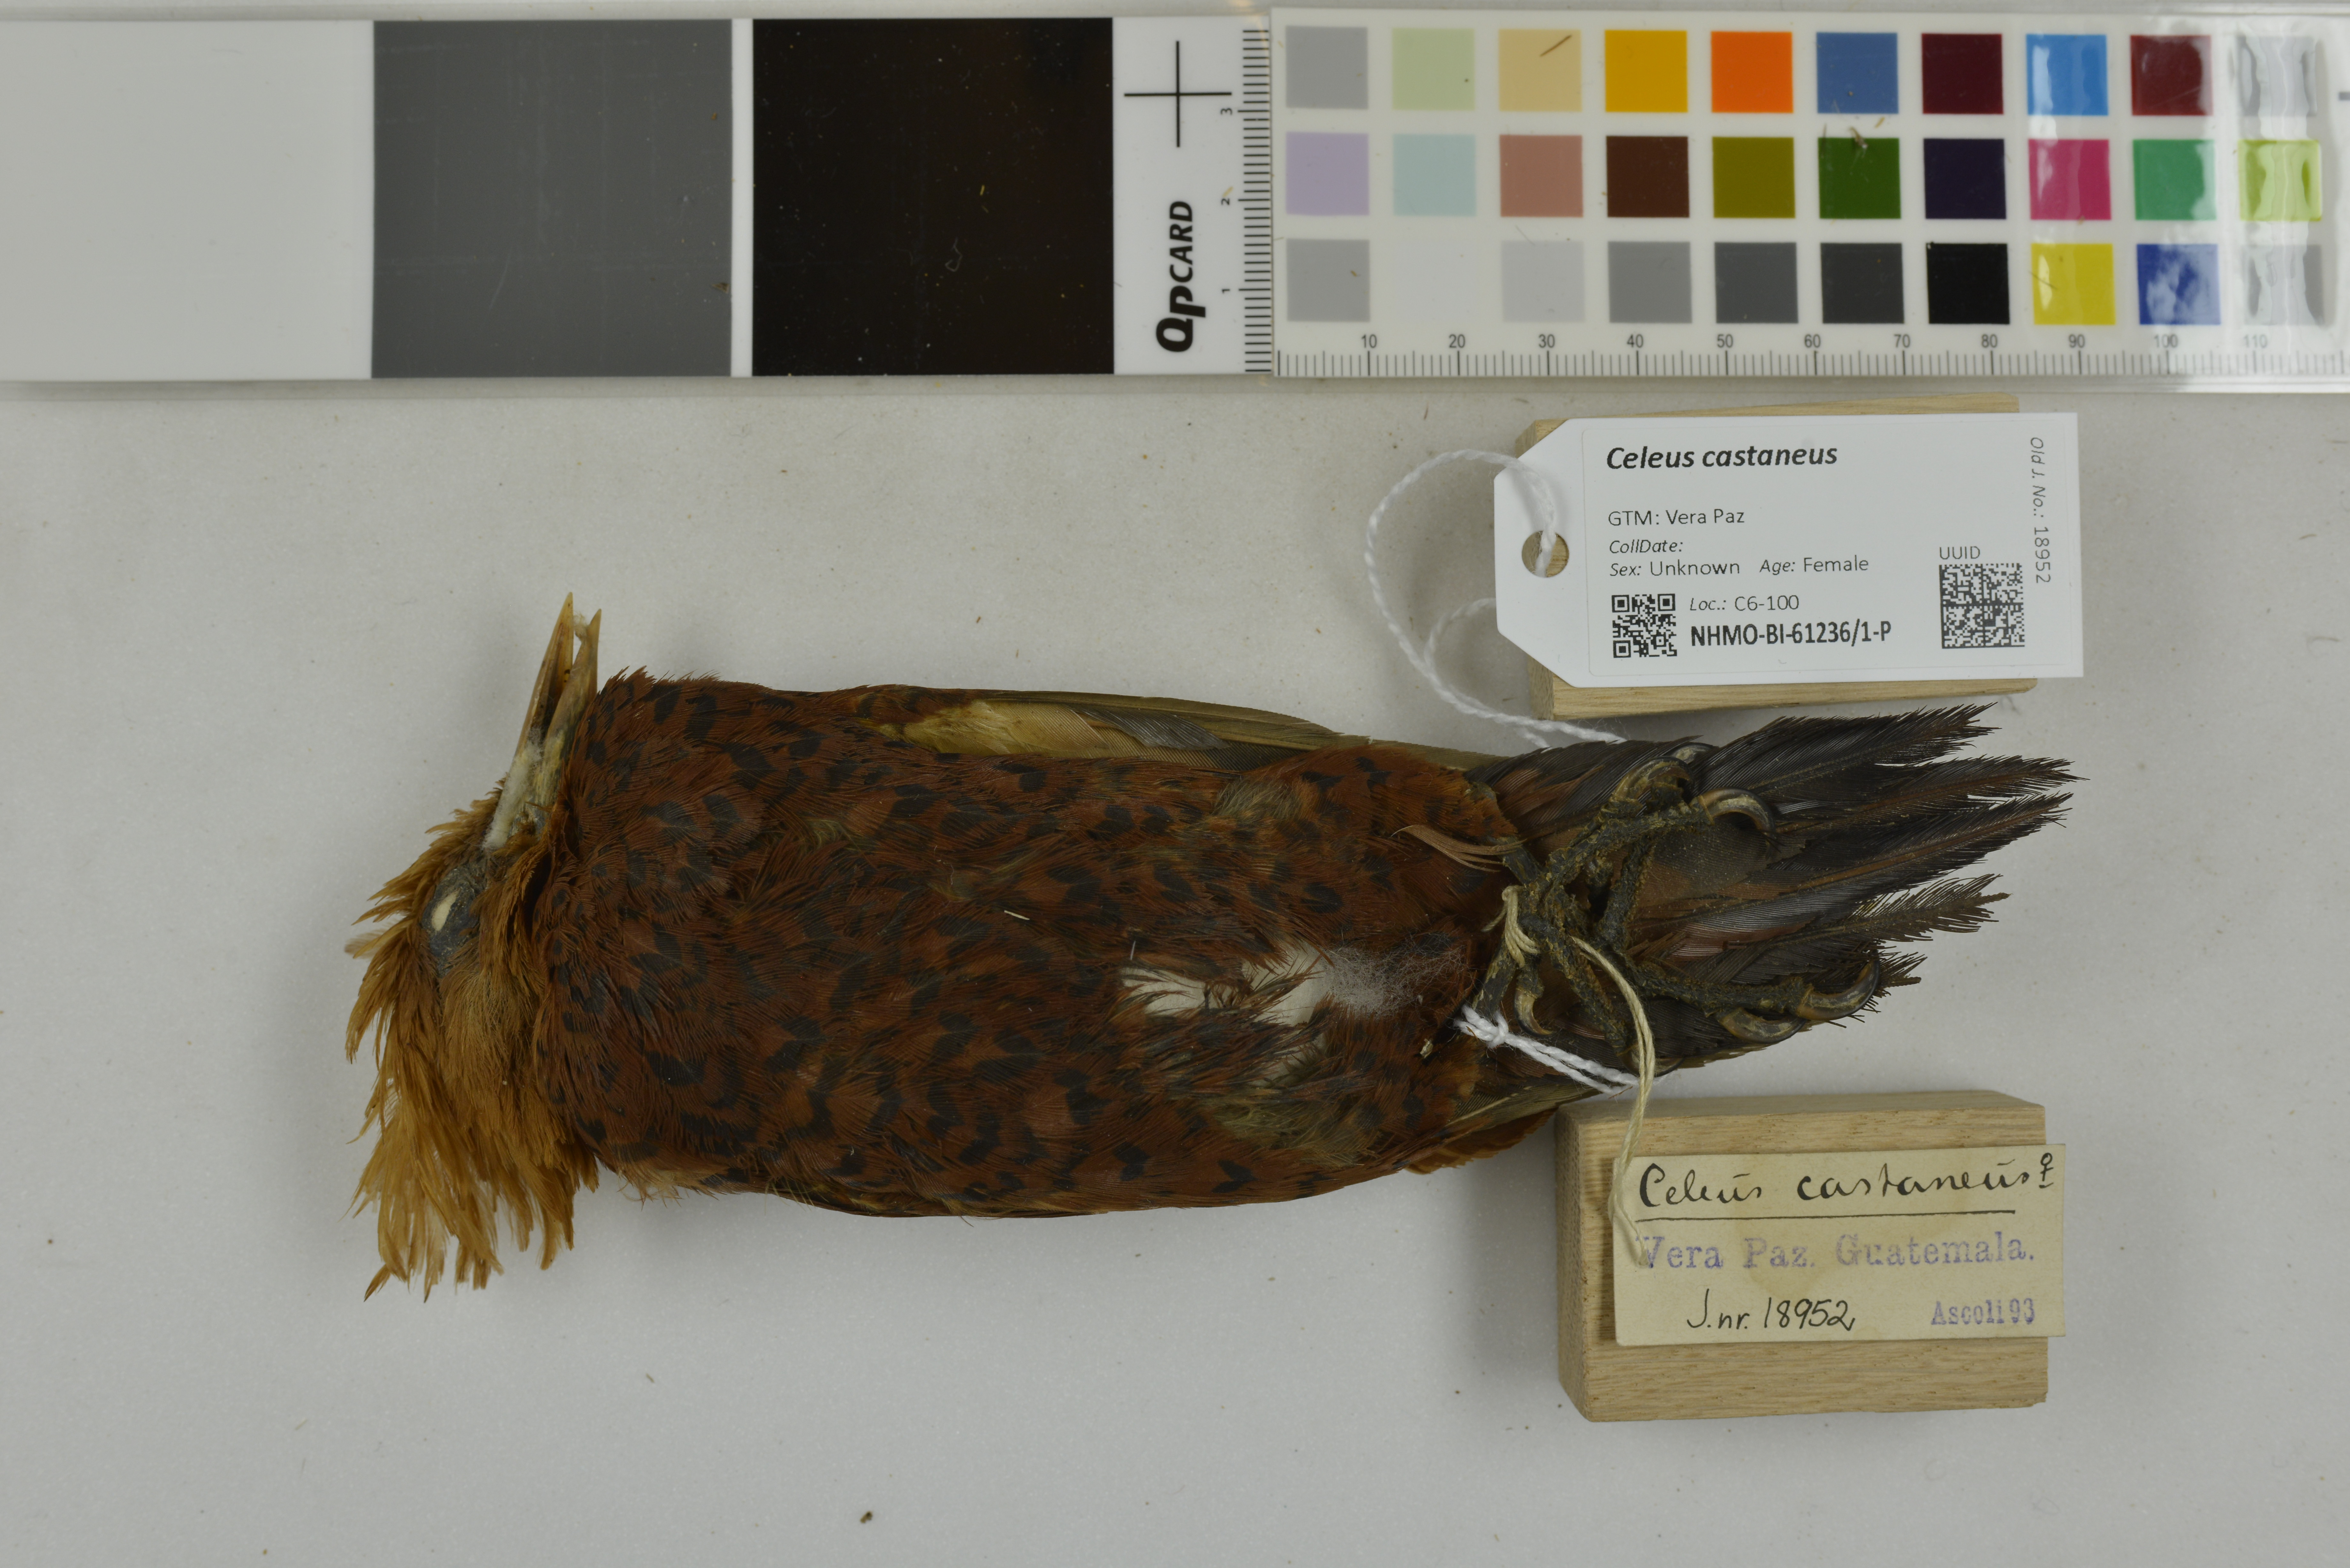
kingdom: Animalia
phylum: Chordata
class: Aves
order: Piciformes
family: Picidae
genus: Celeus
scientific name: Celeus castaneus
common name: Chestnut-colored woodpecker
